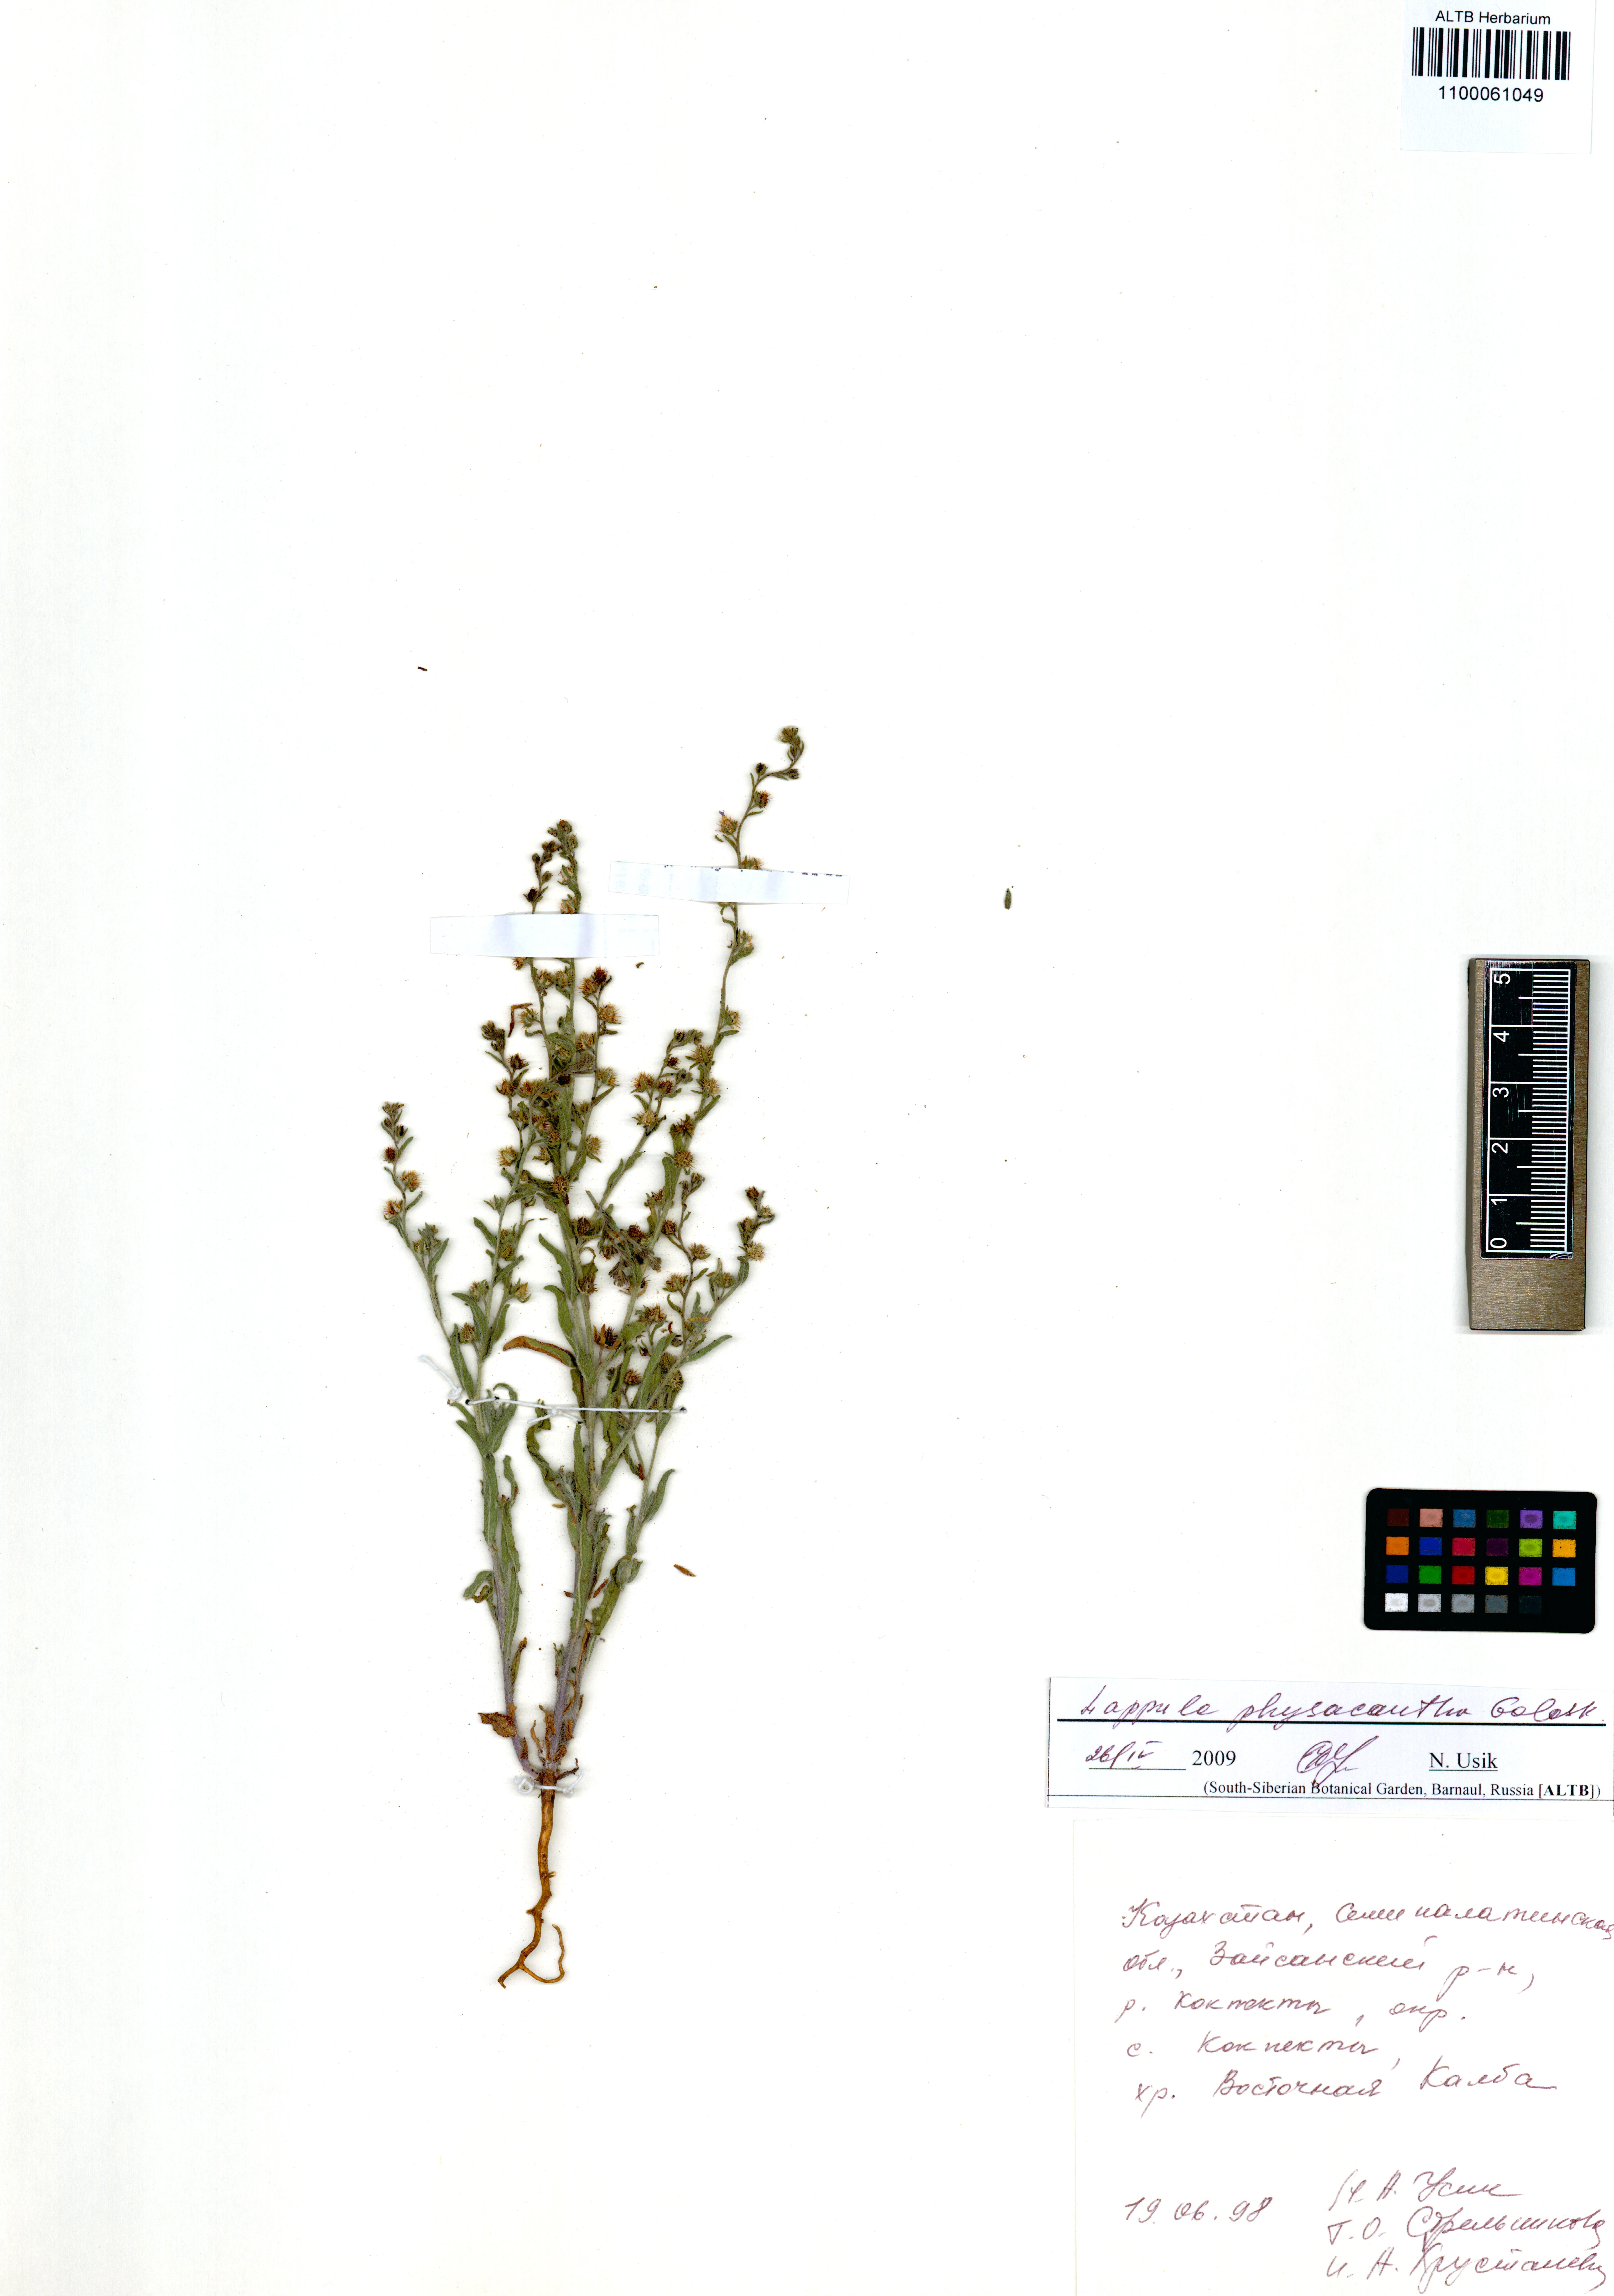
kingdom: Plantae
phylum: Tracheophyta
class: Magnoliopsida
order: Boraginales
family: Boraginaceae
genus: Lappula
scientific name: Lappula physacantha
